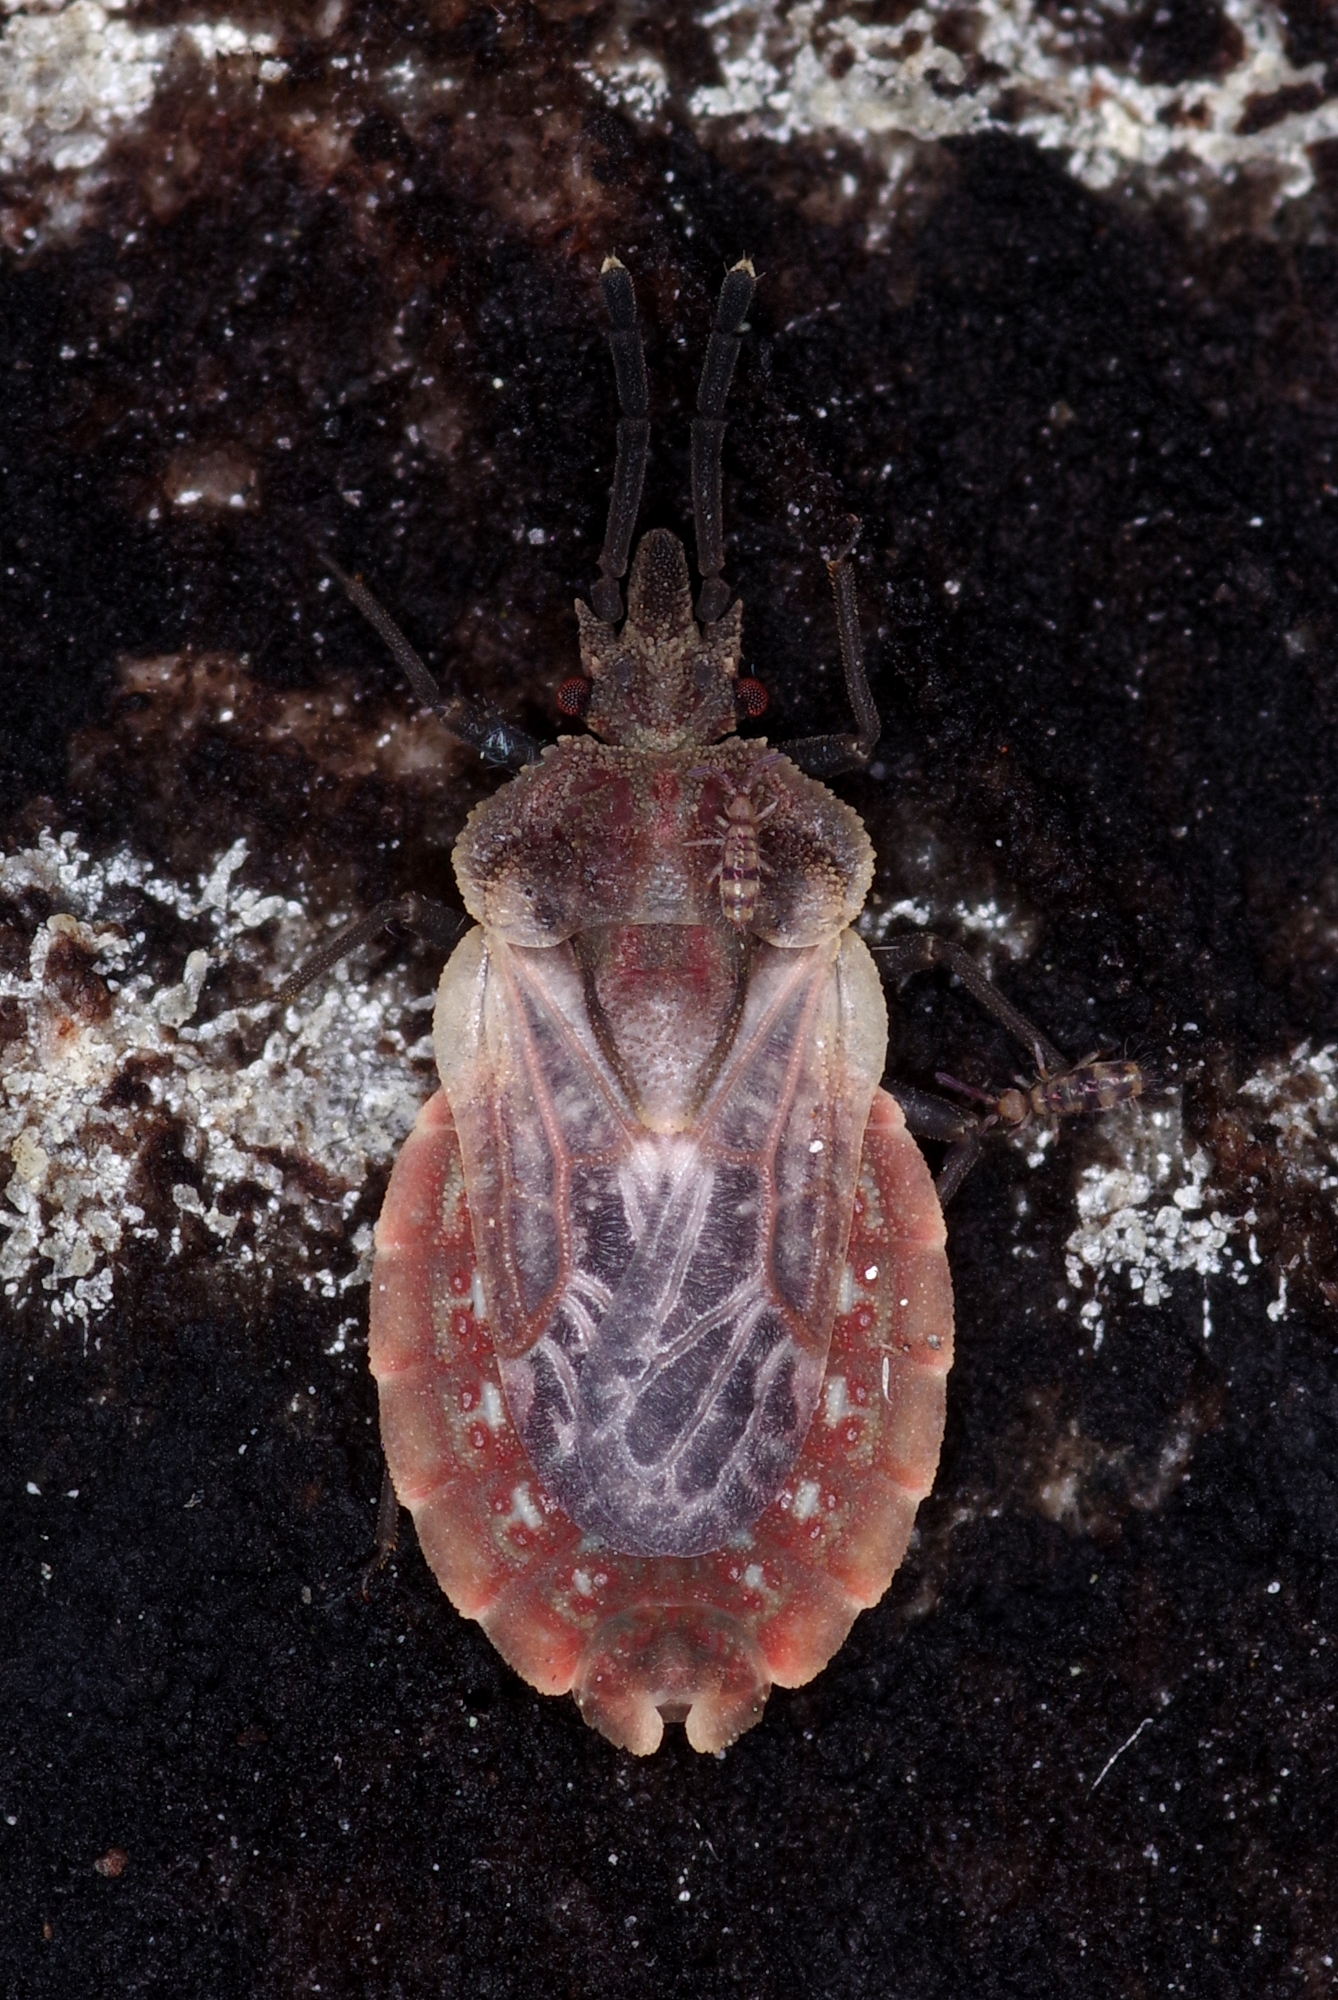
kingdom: Animalia
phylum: Arthropoda
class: Insecta
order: Hemiptera
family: Aradidae
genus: Aradus
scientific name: Aradus corticalis
